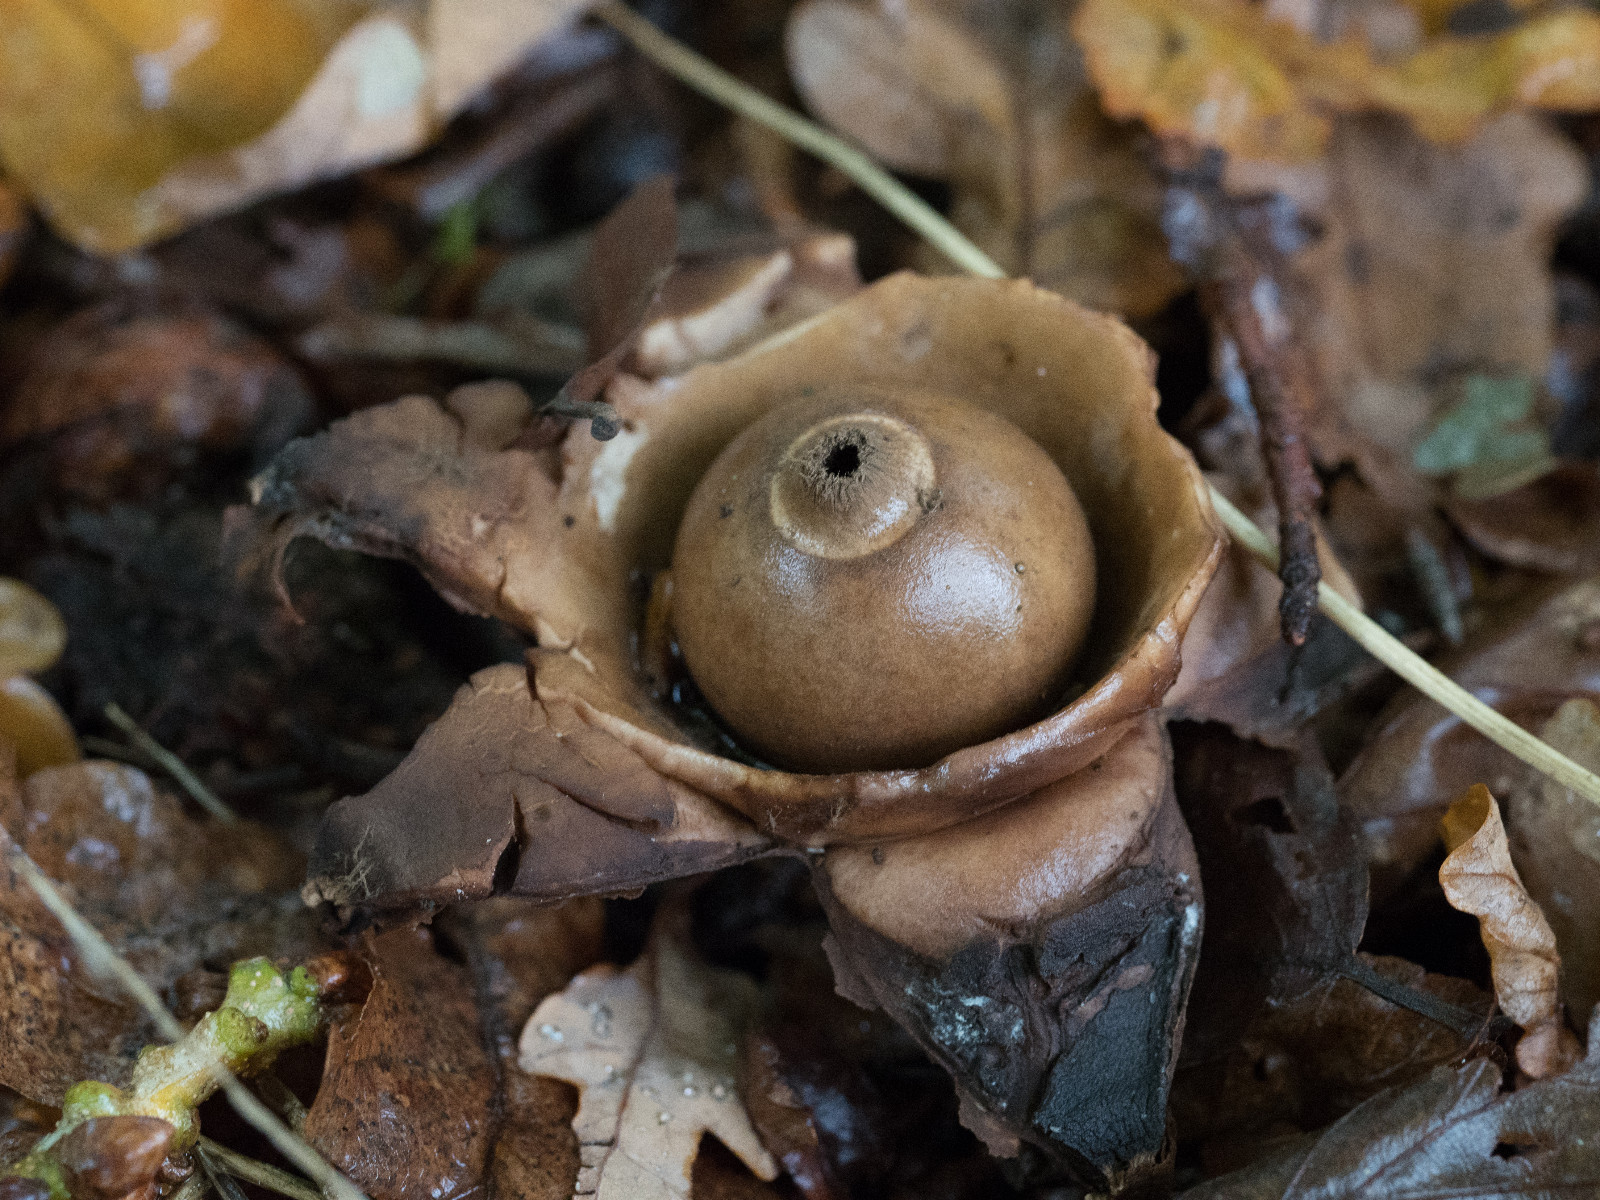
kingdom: Fungi
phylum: Basidiomycota
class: Agaricomycetes
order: Geastrales
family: Geastraceae
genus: Geastrum
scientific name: Geastrum michelianum
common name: kødet stjernebold
